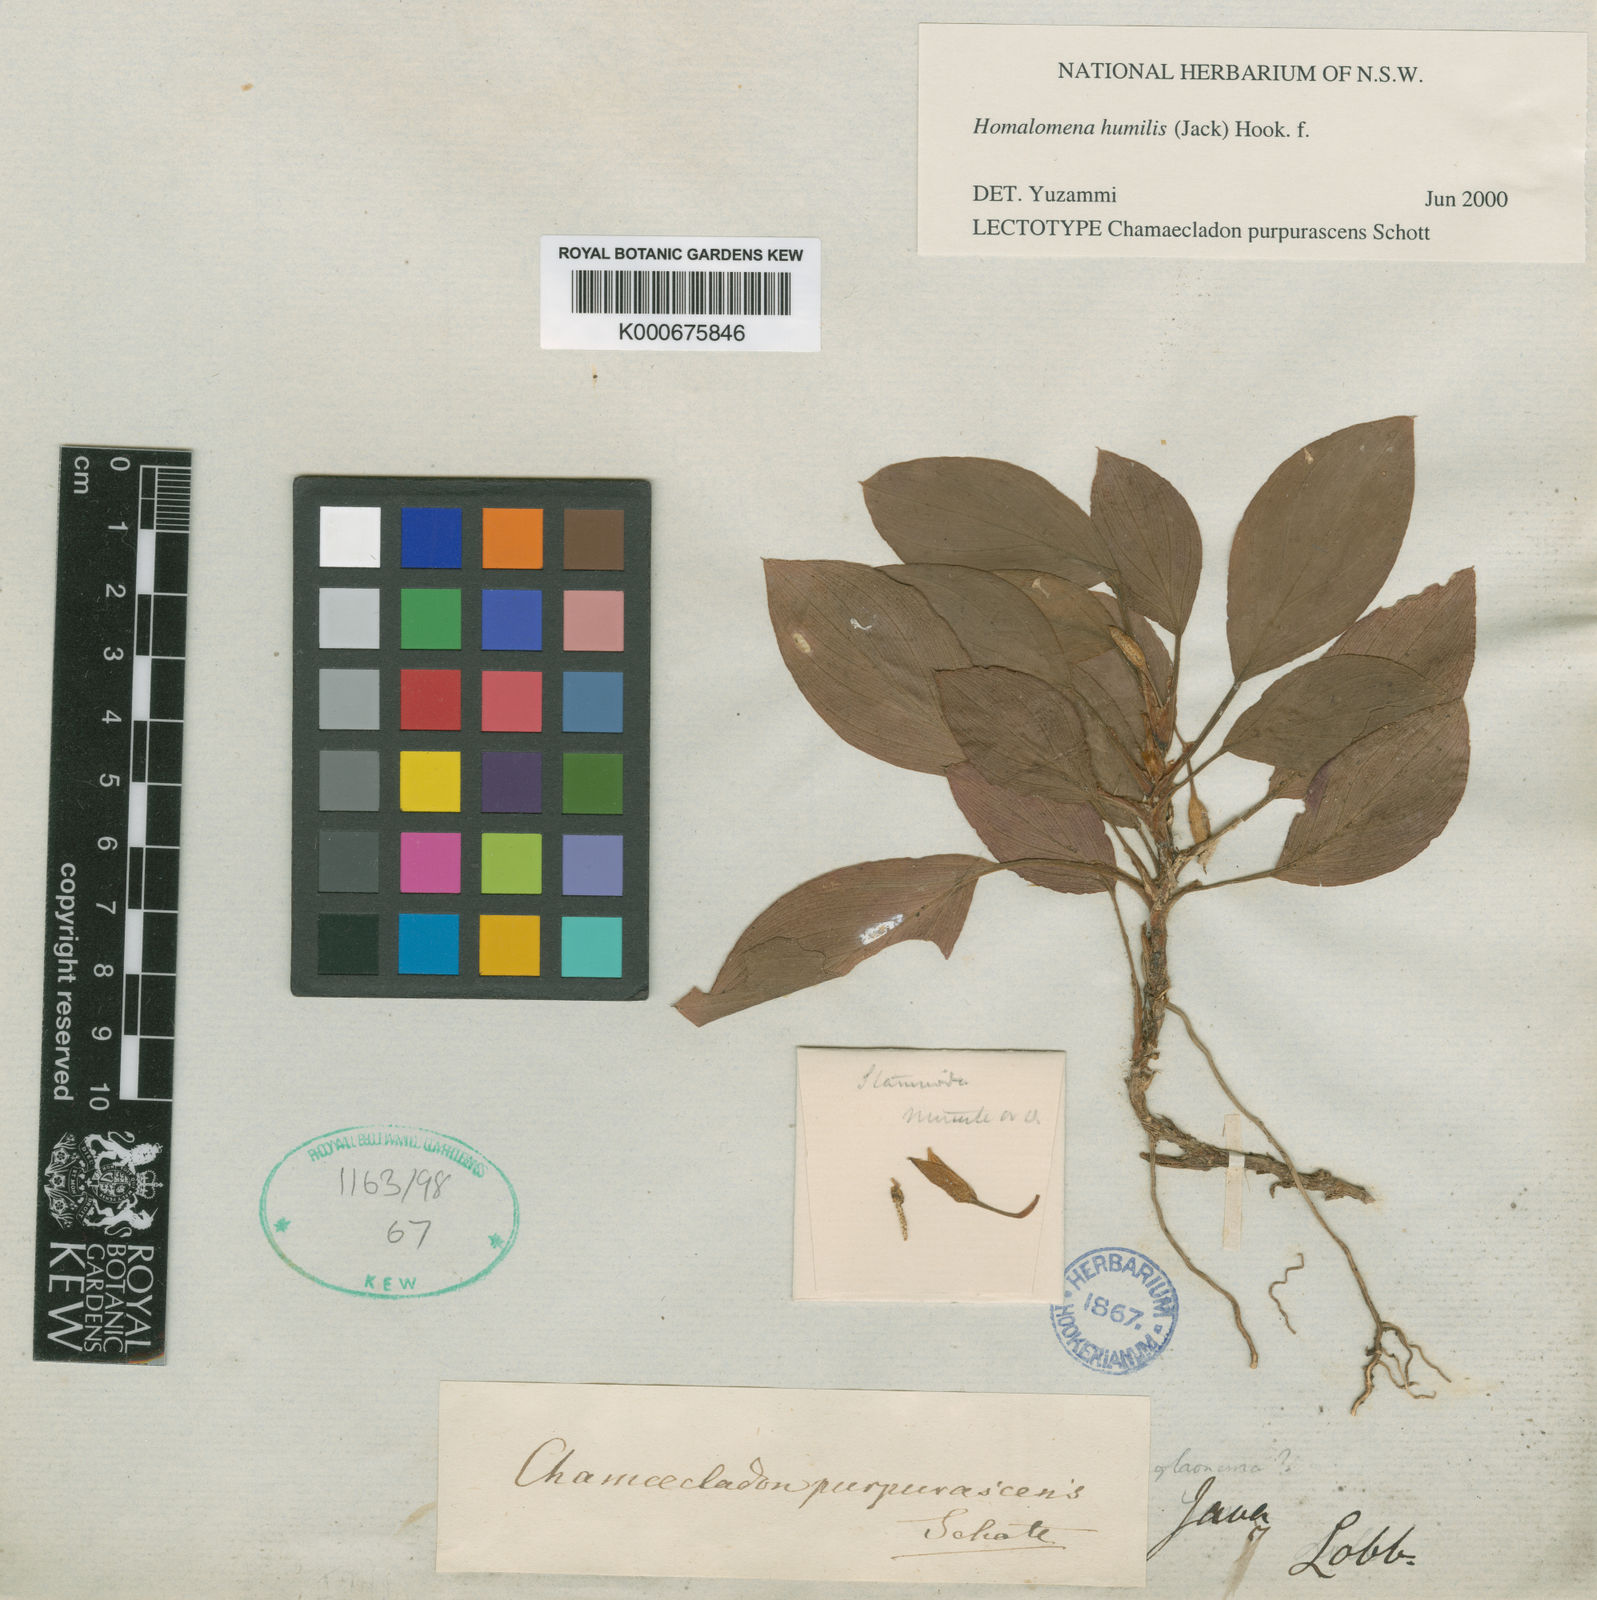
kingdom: Plantae
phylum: Tracheophyta
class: Liliopsida
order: Alismatales
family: Araceae
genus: Homalomena
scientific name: Homalomena humilis
